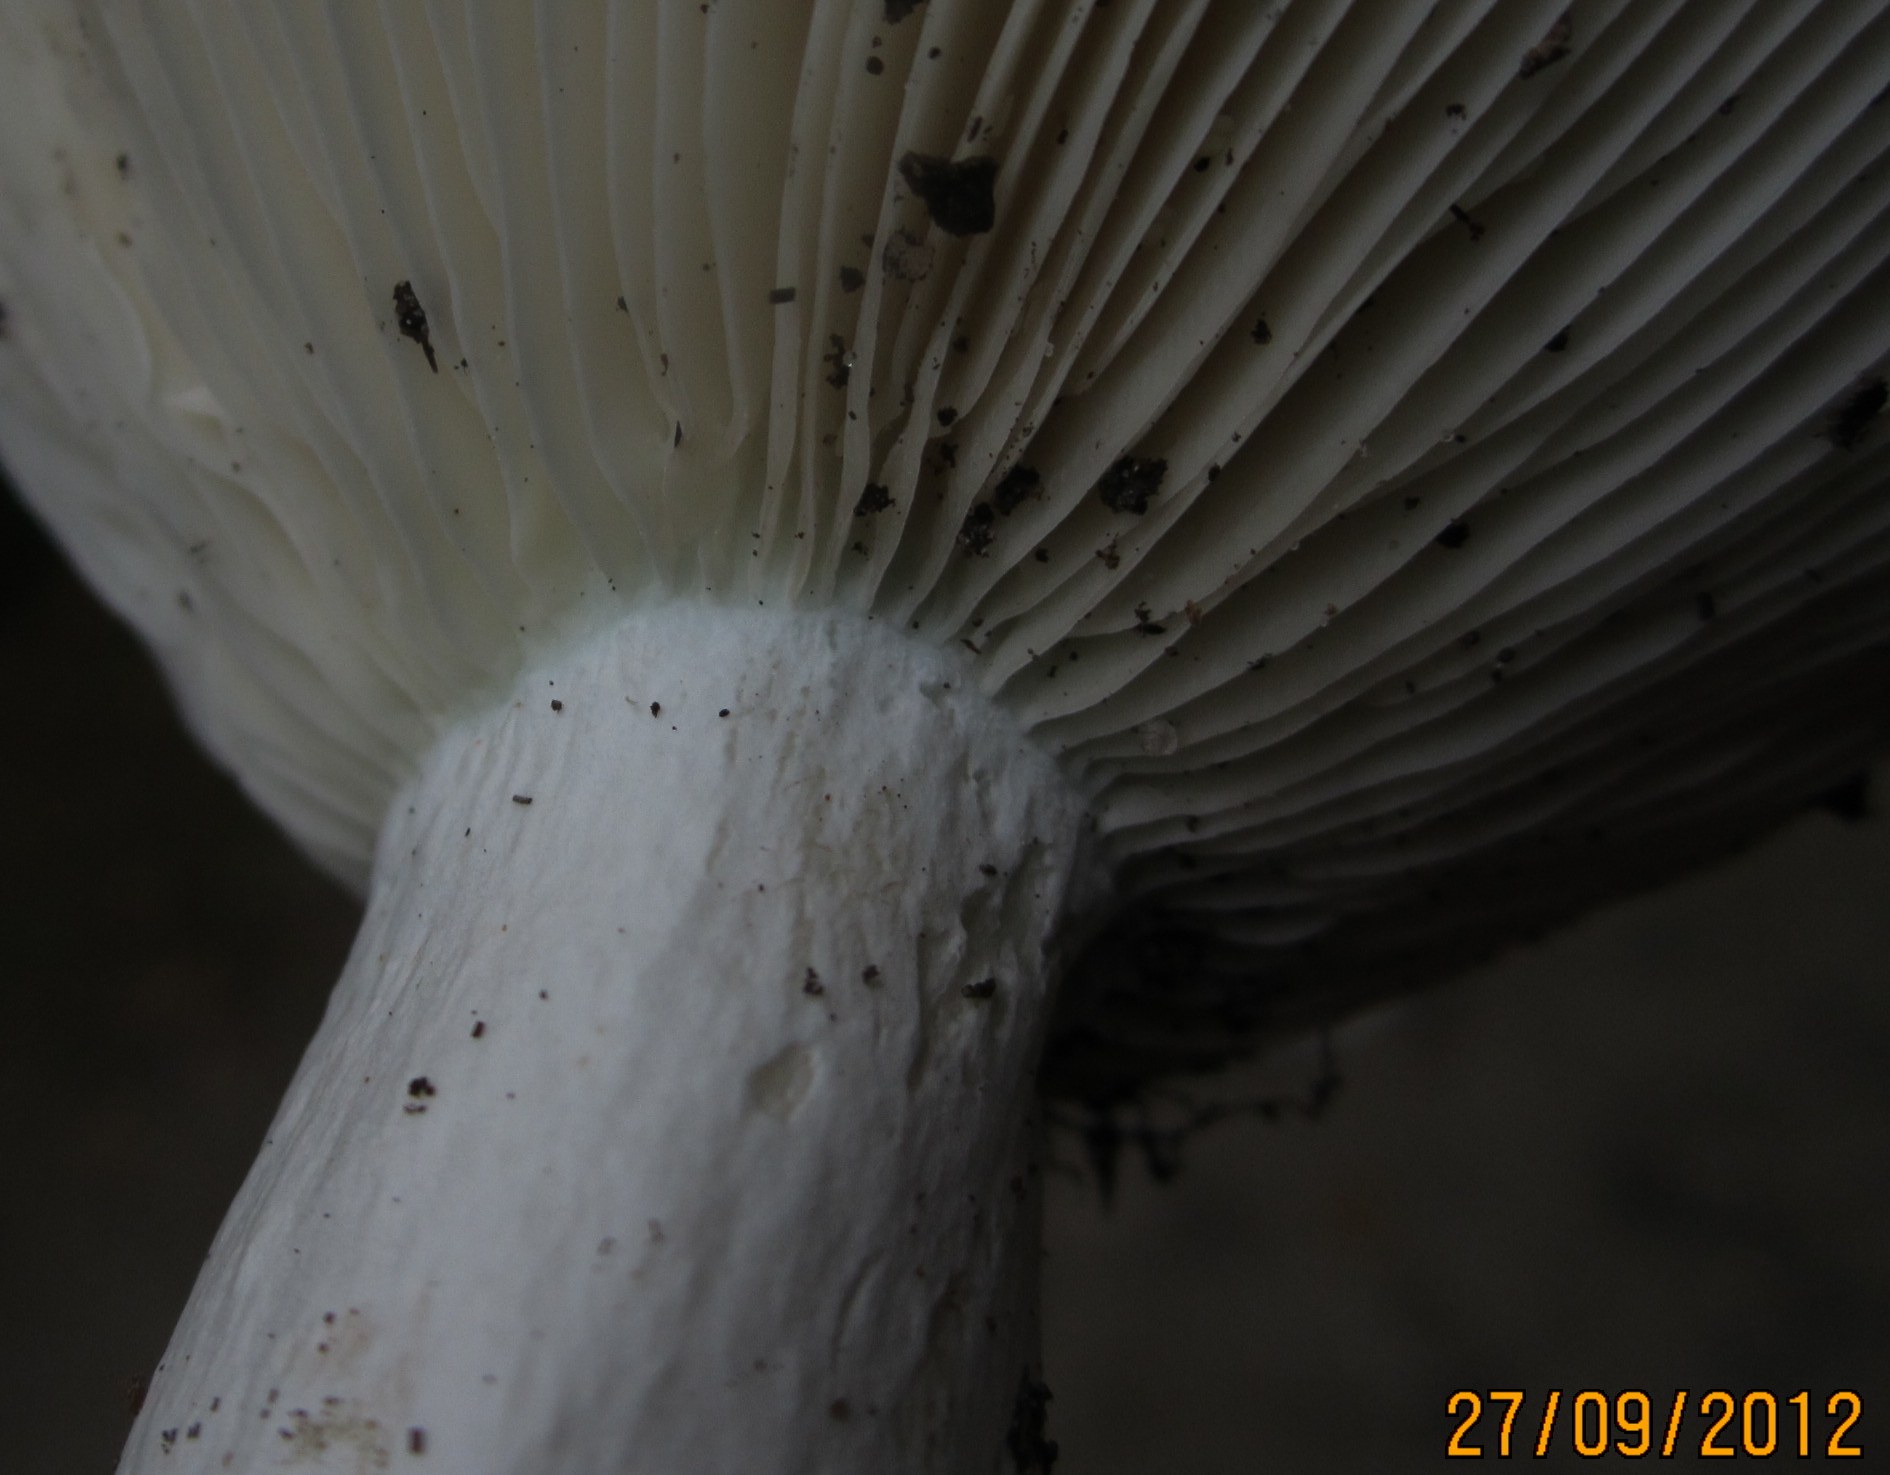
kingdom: Fungi
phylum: Basidiomycota
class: Agaricomycetes
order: Russulales
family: Russulaceae
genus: Russula
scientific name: Russula chloroides
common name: grønhalset tragt-skørhat
